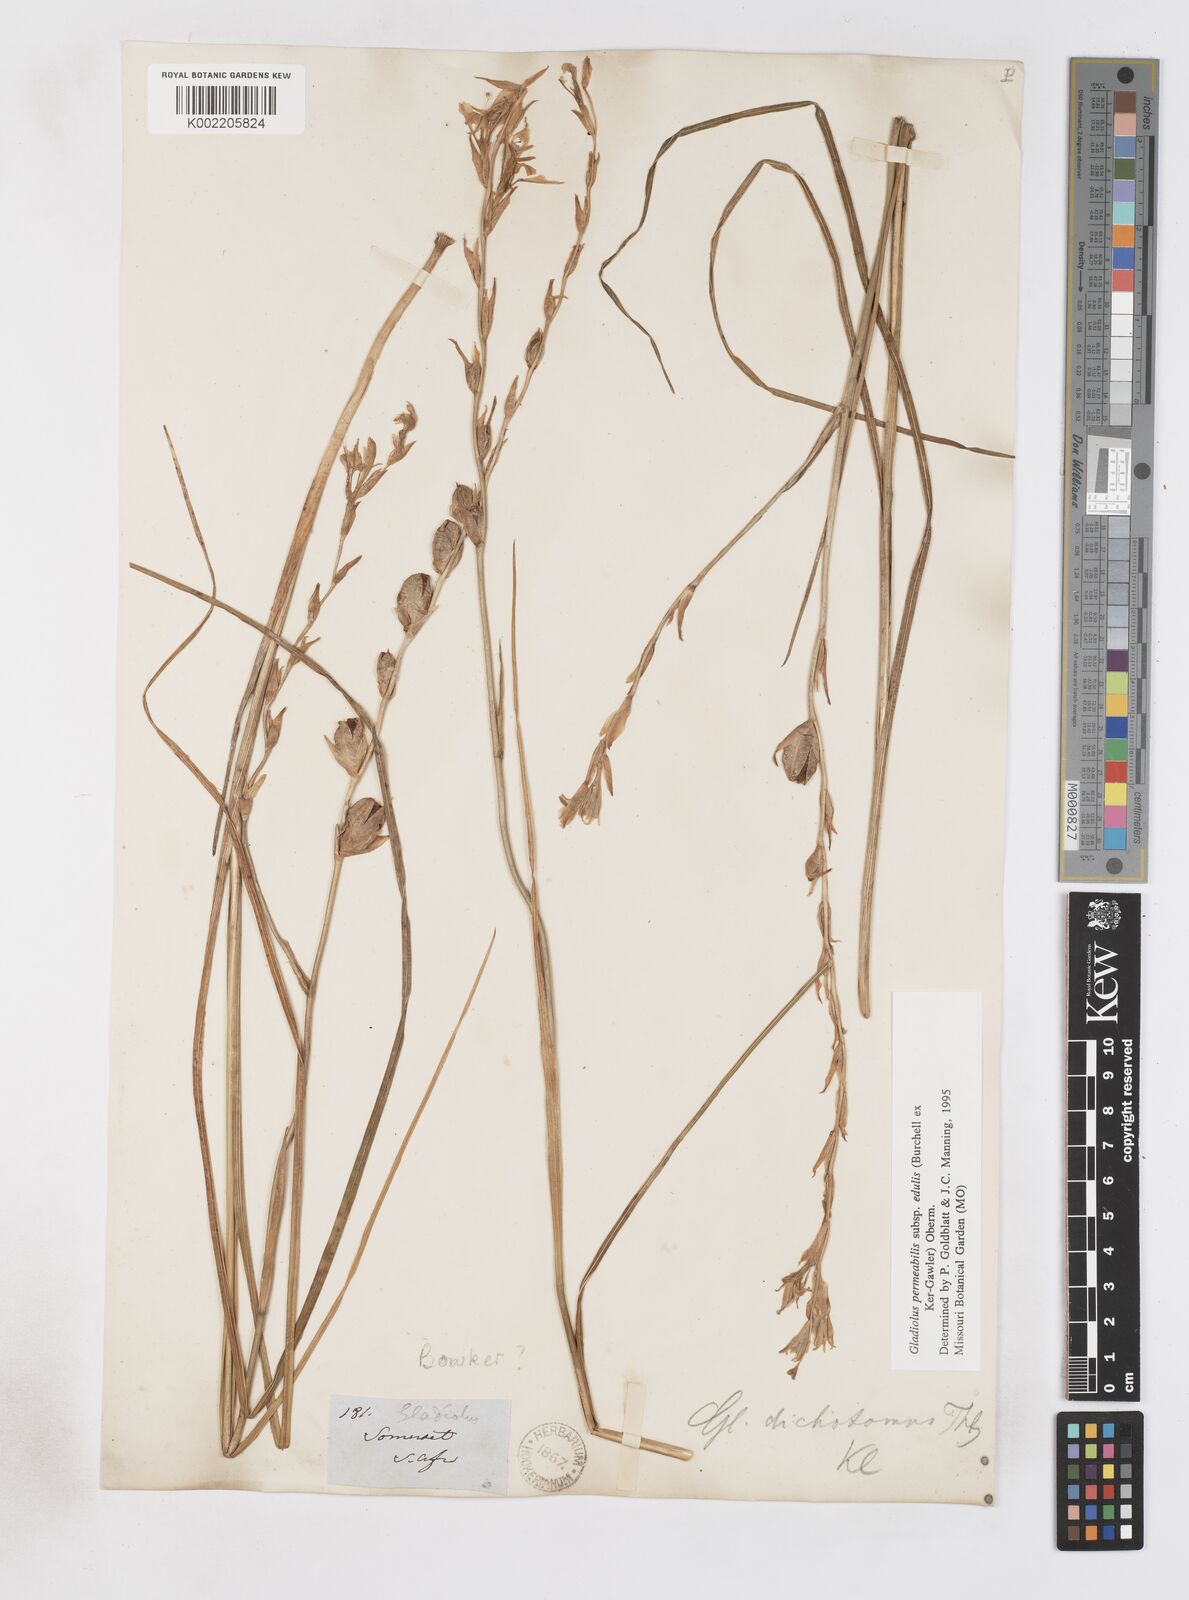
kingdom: Plantae
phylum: Tracheophyta
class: Liliopsida
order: Asparagales
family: Iridaceae
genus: Gladiolus
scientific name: Gladiolus permeabilis
